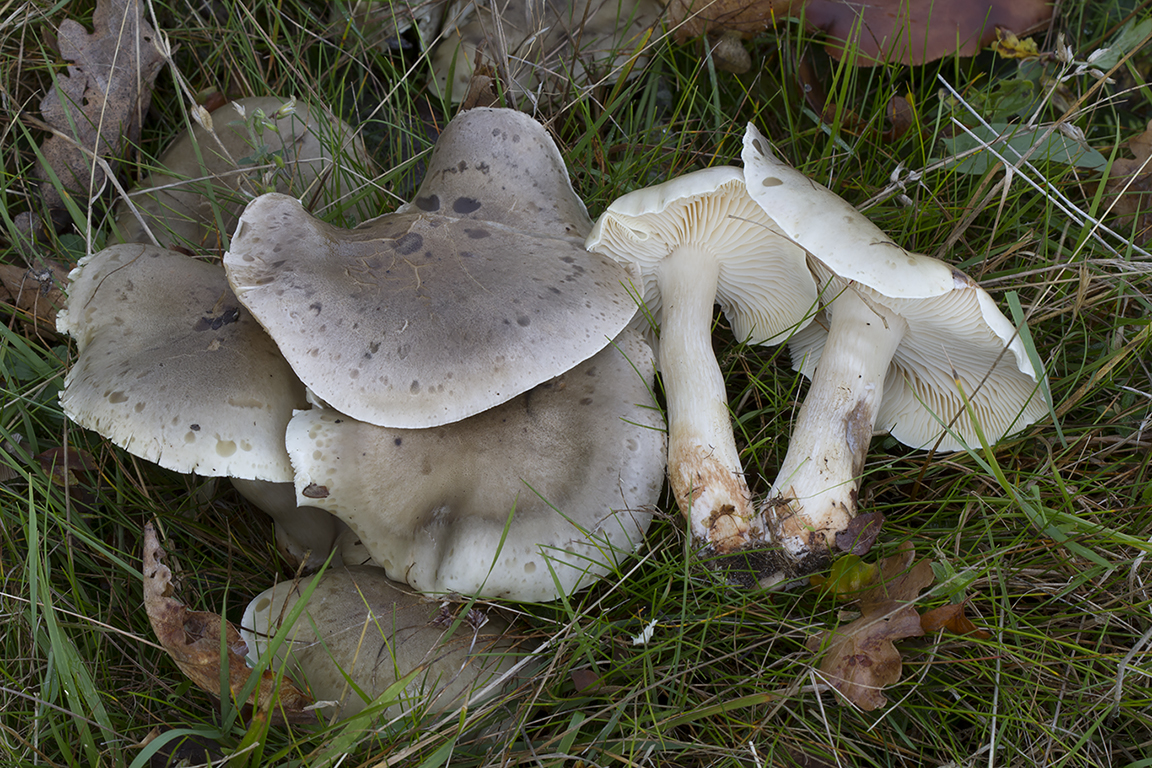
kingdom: Fungi
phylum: Basidiomycota
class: Agaricomycetes
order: Agaricales
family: Tricholomataceae
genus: Lepista
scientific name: Lepista panaeolus
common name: marmoreret hekseringshat
